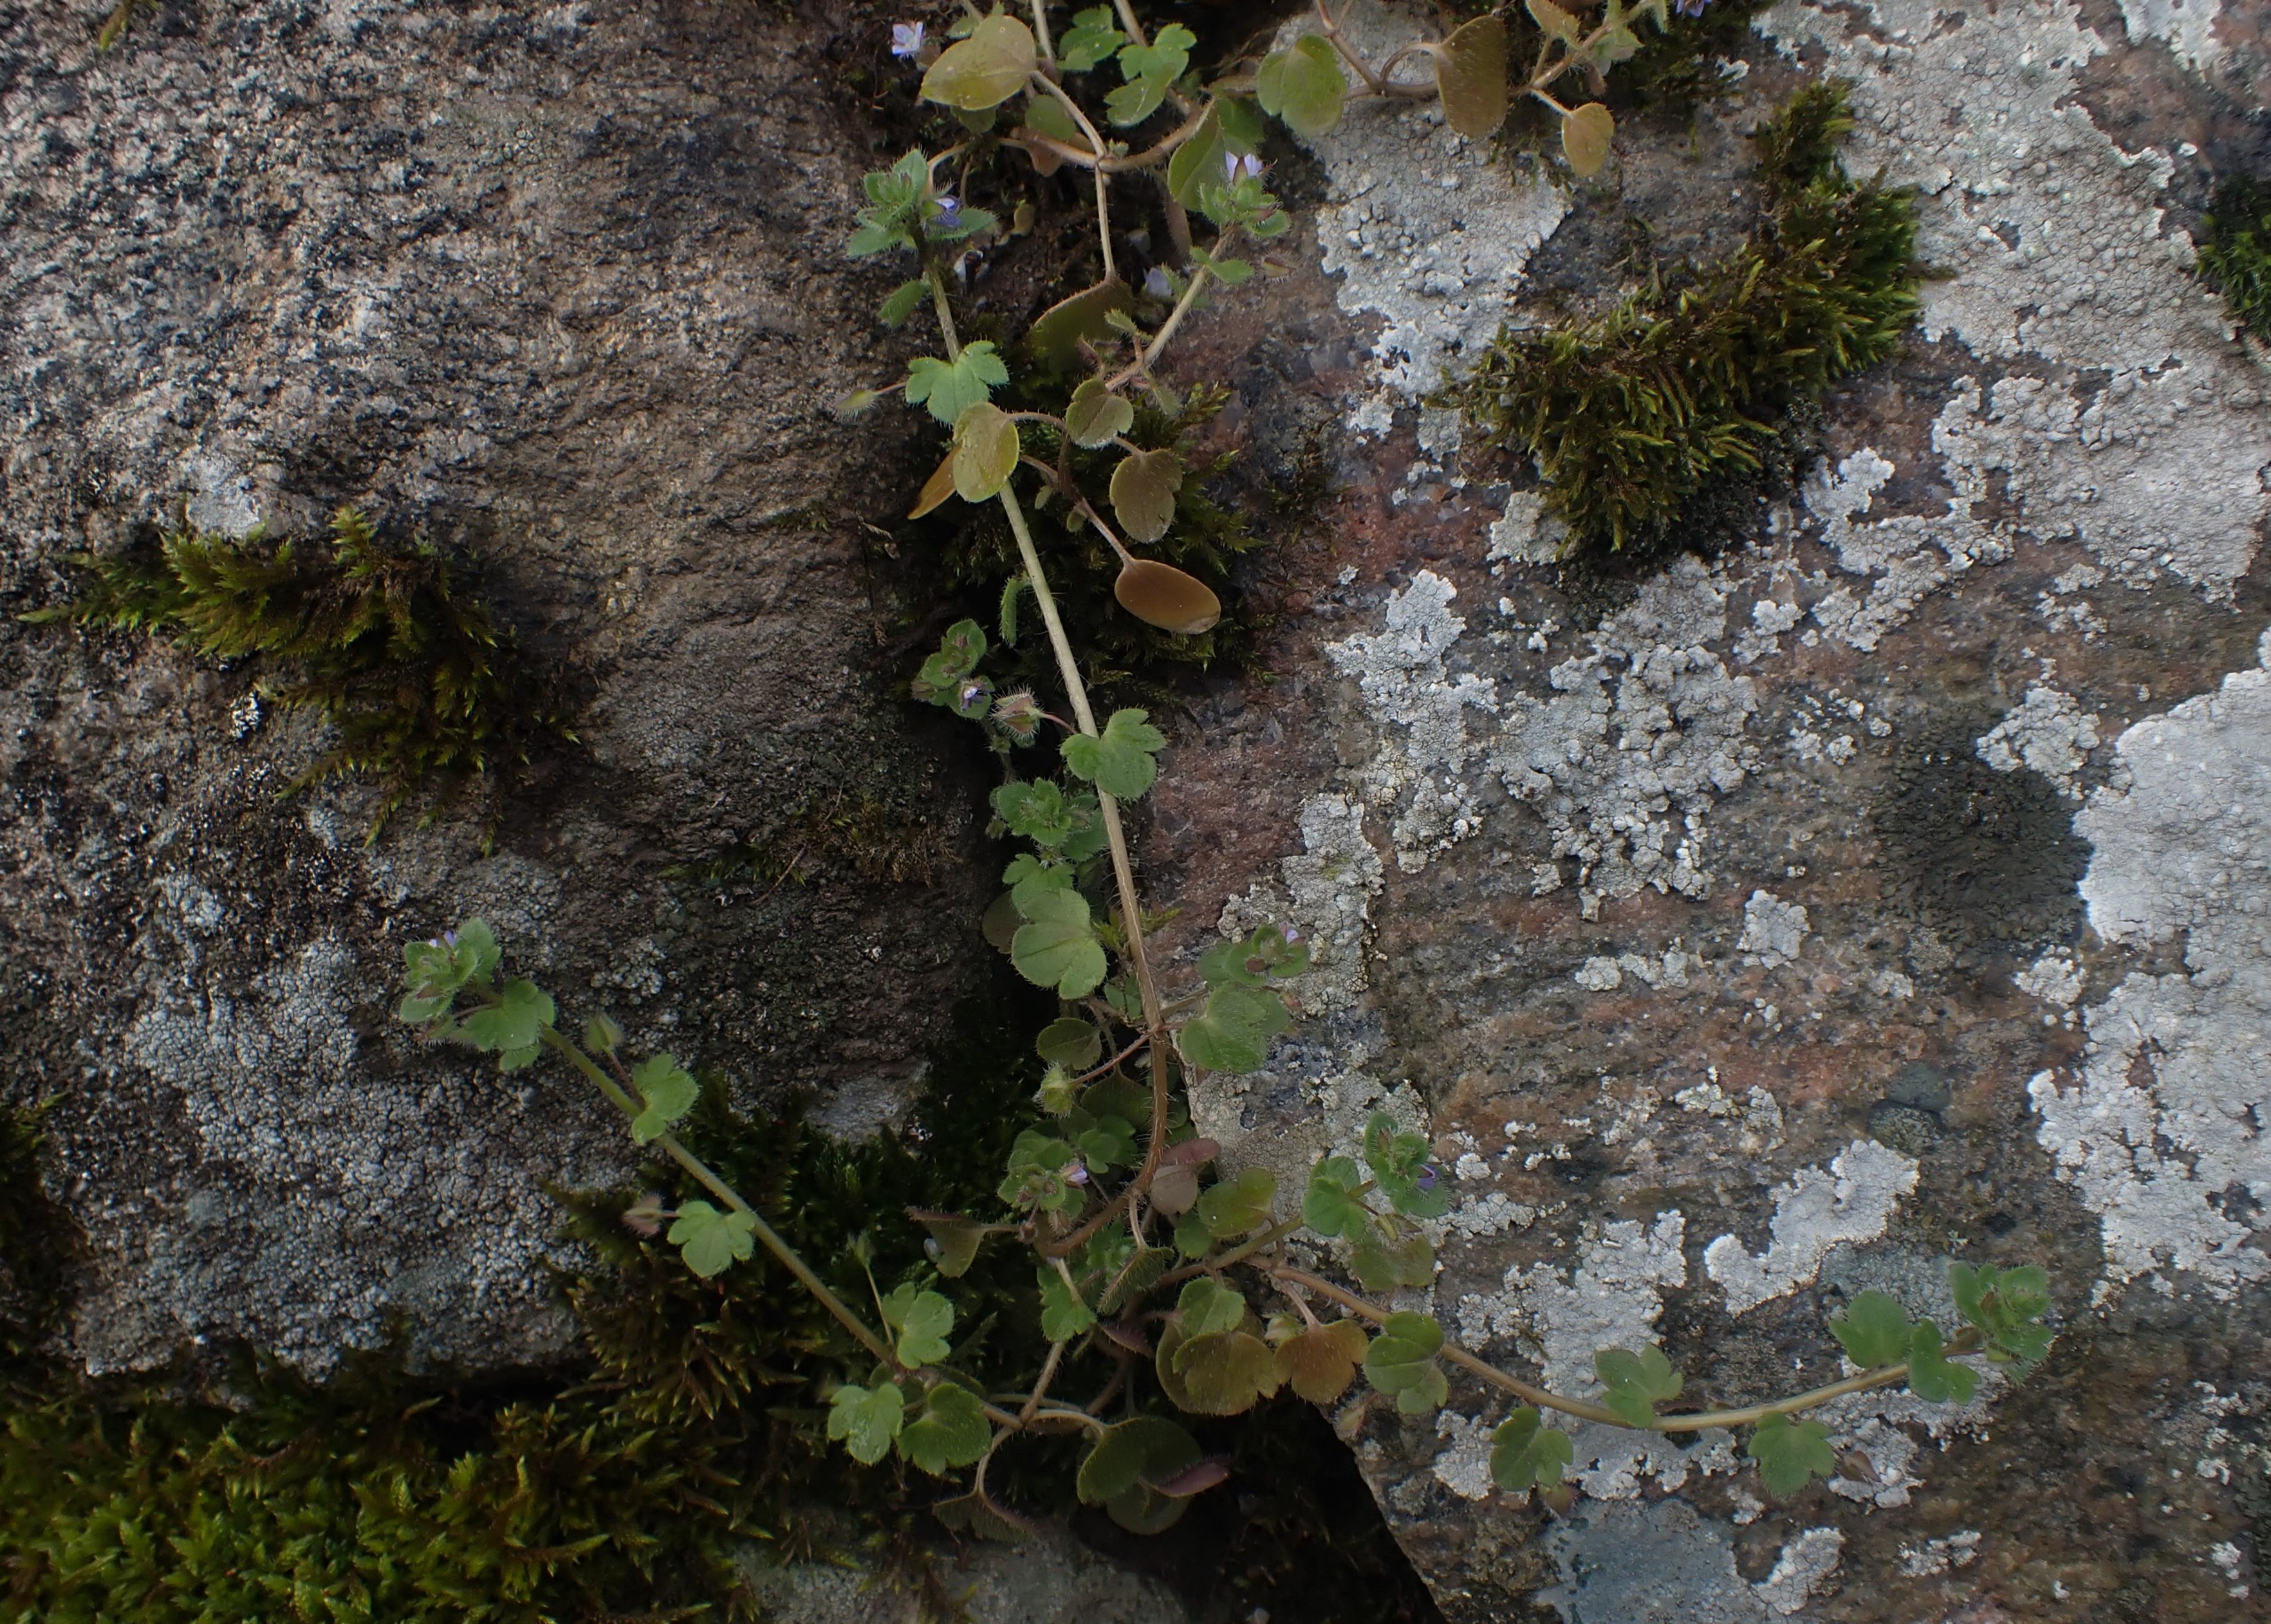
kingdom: Plantae
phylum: Tracheophyta
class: Magnoliopsida
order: Lamiales
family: Plantaginaceae
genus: Veronica
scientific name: Veronica sublobata
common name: Krat-ærenpris
